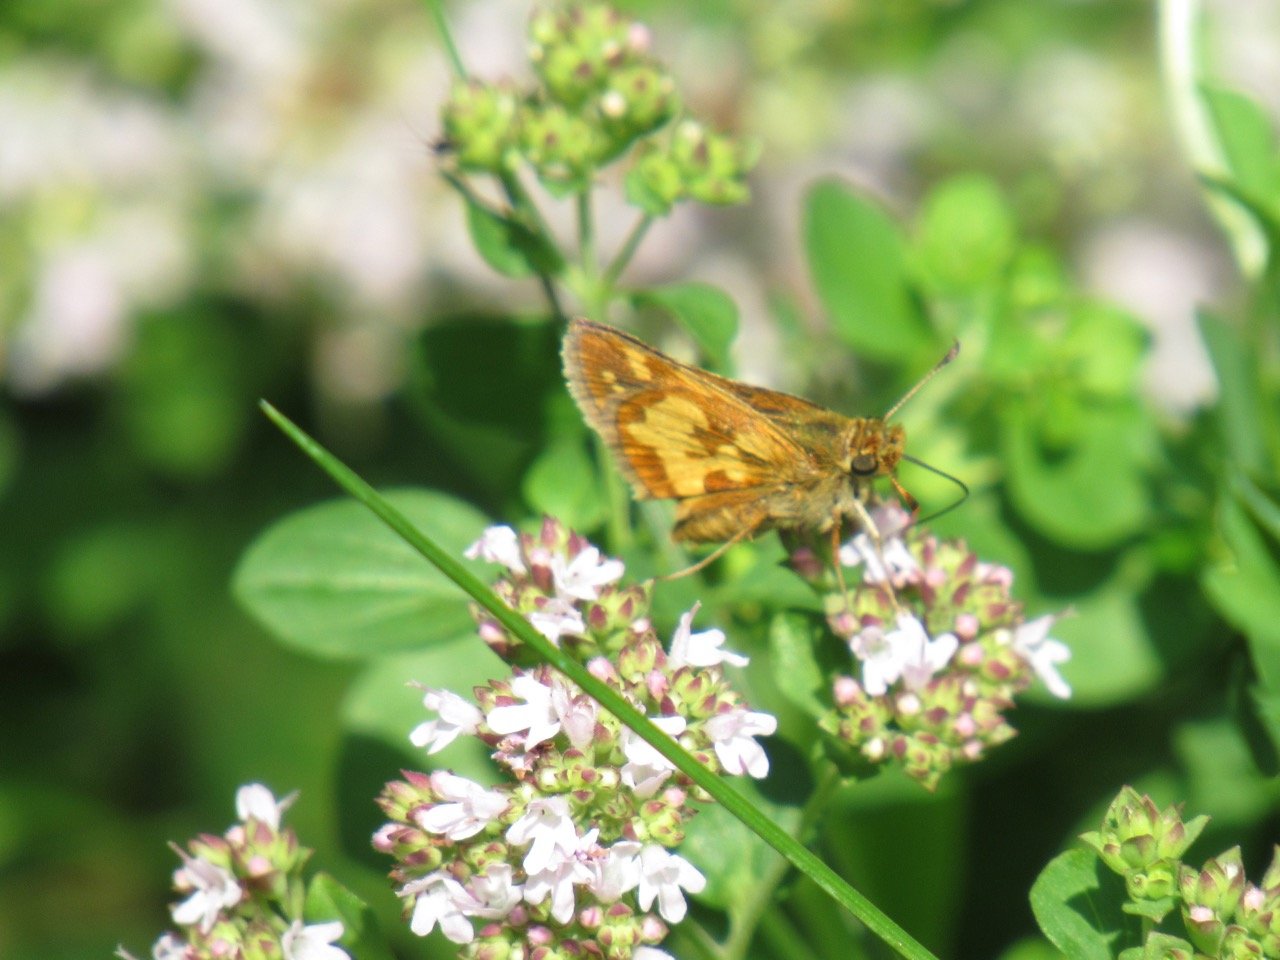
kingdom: Animalia
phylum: Arthropoda
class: Insecta
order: Lepidoptera
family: Hesperiidae
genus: Polites
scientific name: Polites coras
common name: Peck's Skipper
